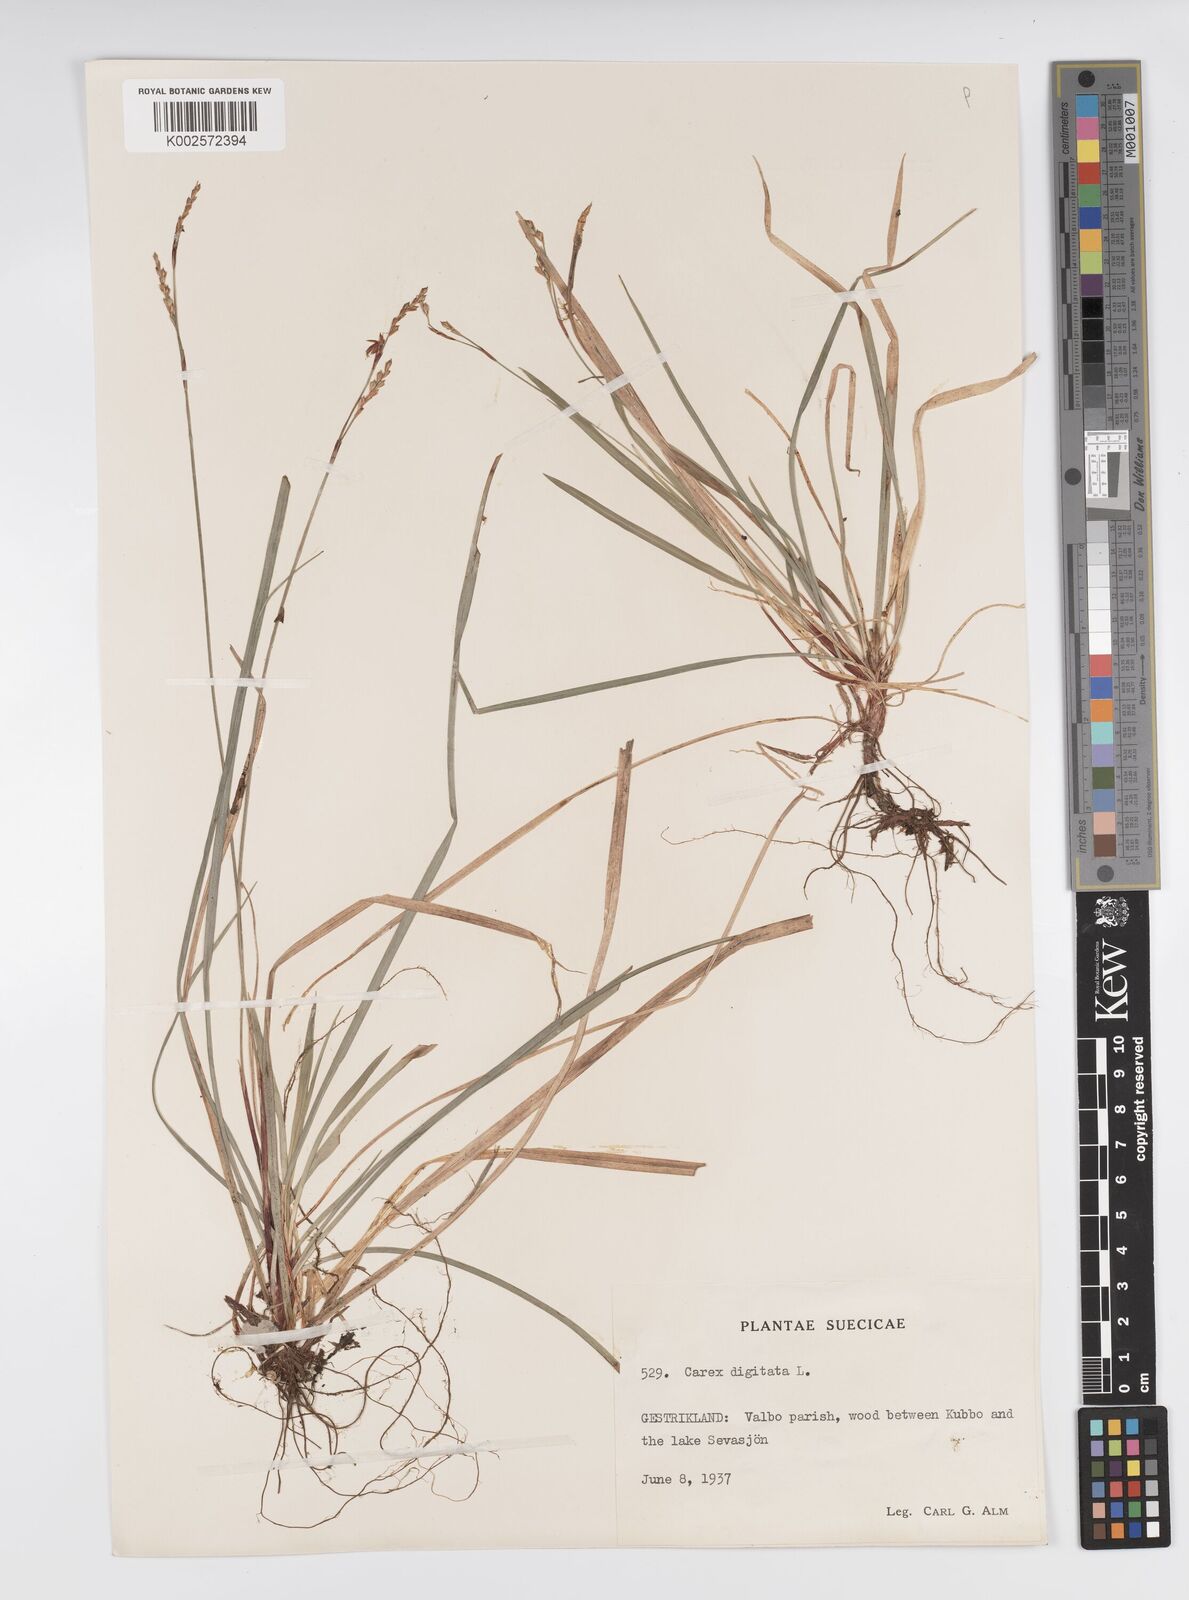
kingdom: Plantae
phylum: Tracheophyta
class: Liliopsida
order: Poales
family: Cyperaceae
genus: Carex
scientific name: Carex digitata
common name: Fingered sedge
